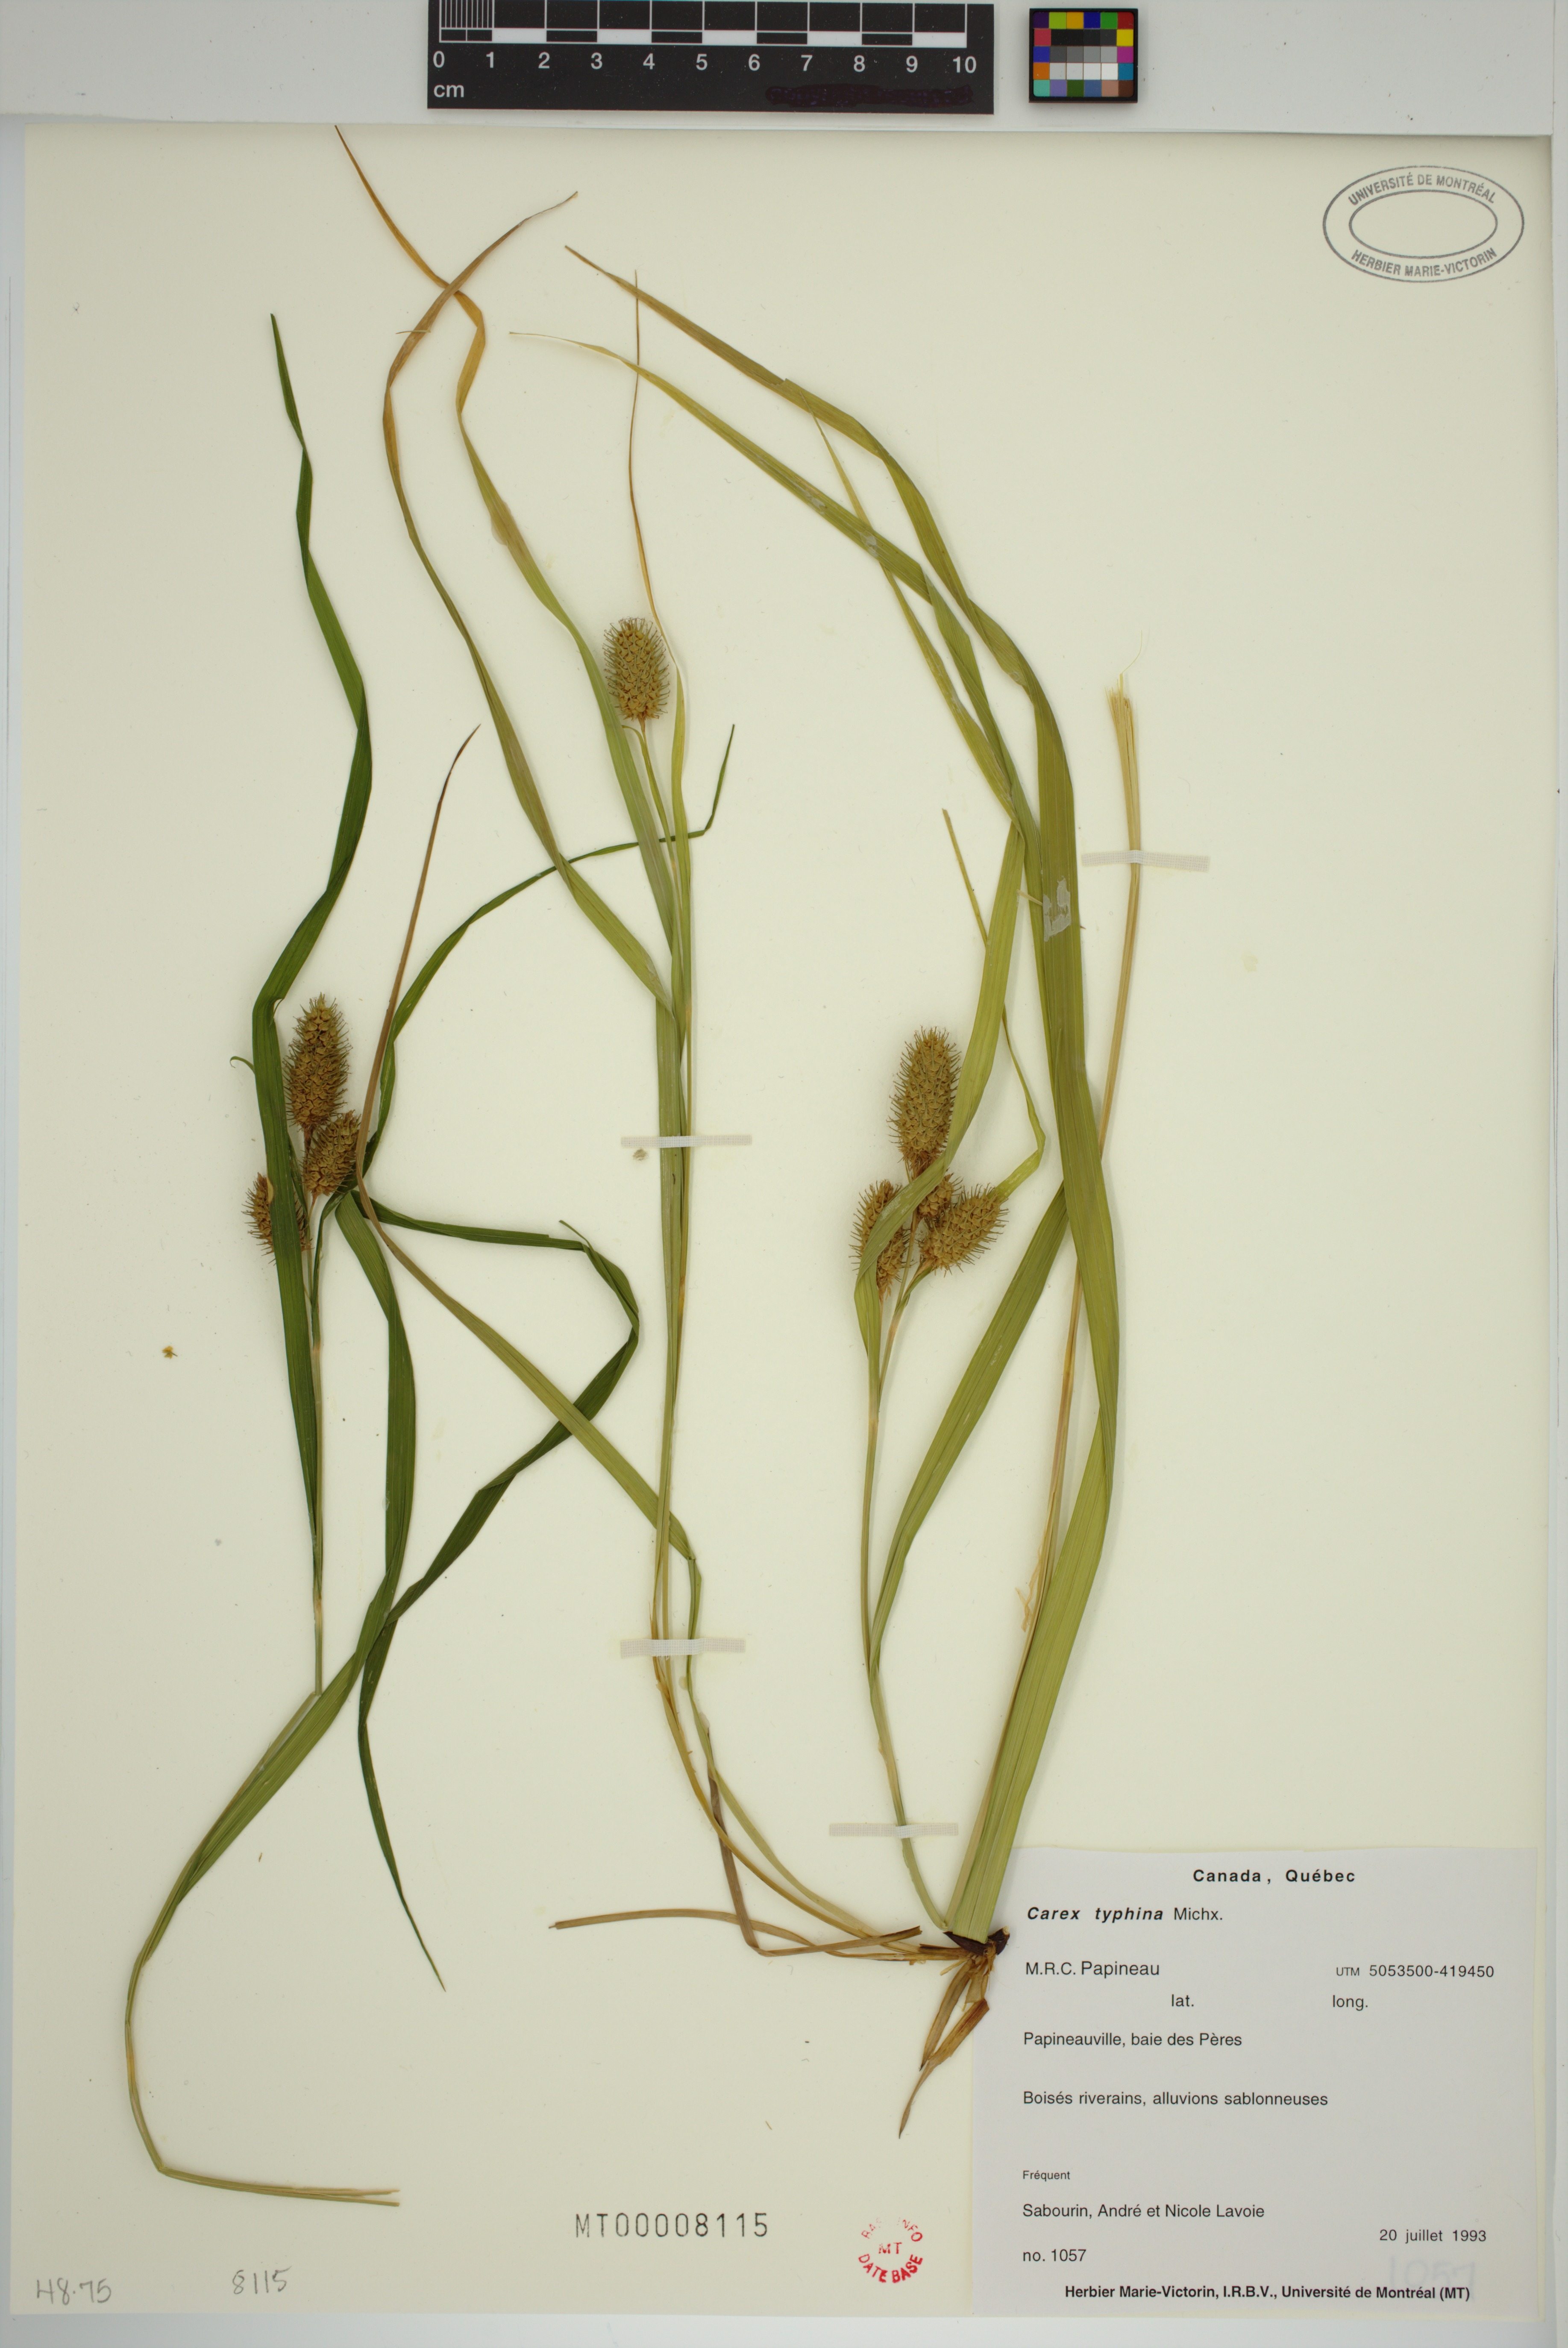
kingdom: Plantae
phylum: Tracheophyta
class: Liliopsida
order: Poales
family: Cyperaceae
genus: Carex
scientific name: Carex typhina
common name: Cattail sedge
